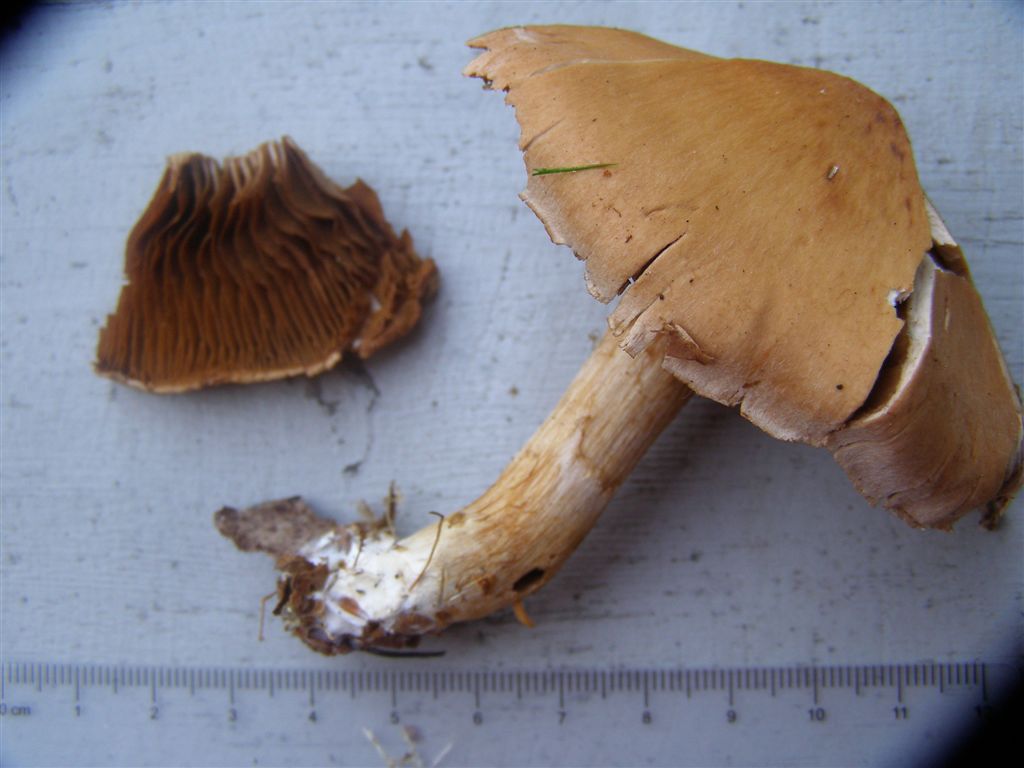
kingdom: Fungi
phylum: Basidiomycota
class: Agaricomycetes
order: Agaricales
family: Cortinariaceae
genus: Cortinarius
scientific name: Cortinarius armillatus
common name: cinnoberbæltet slørhat
